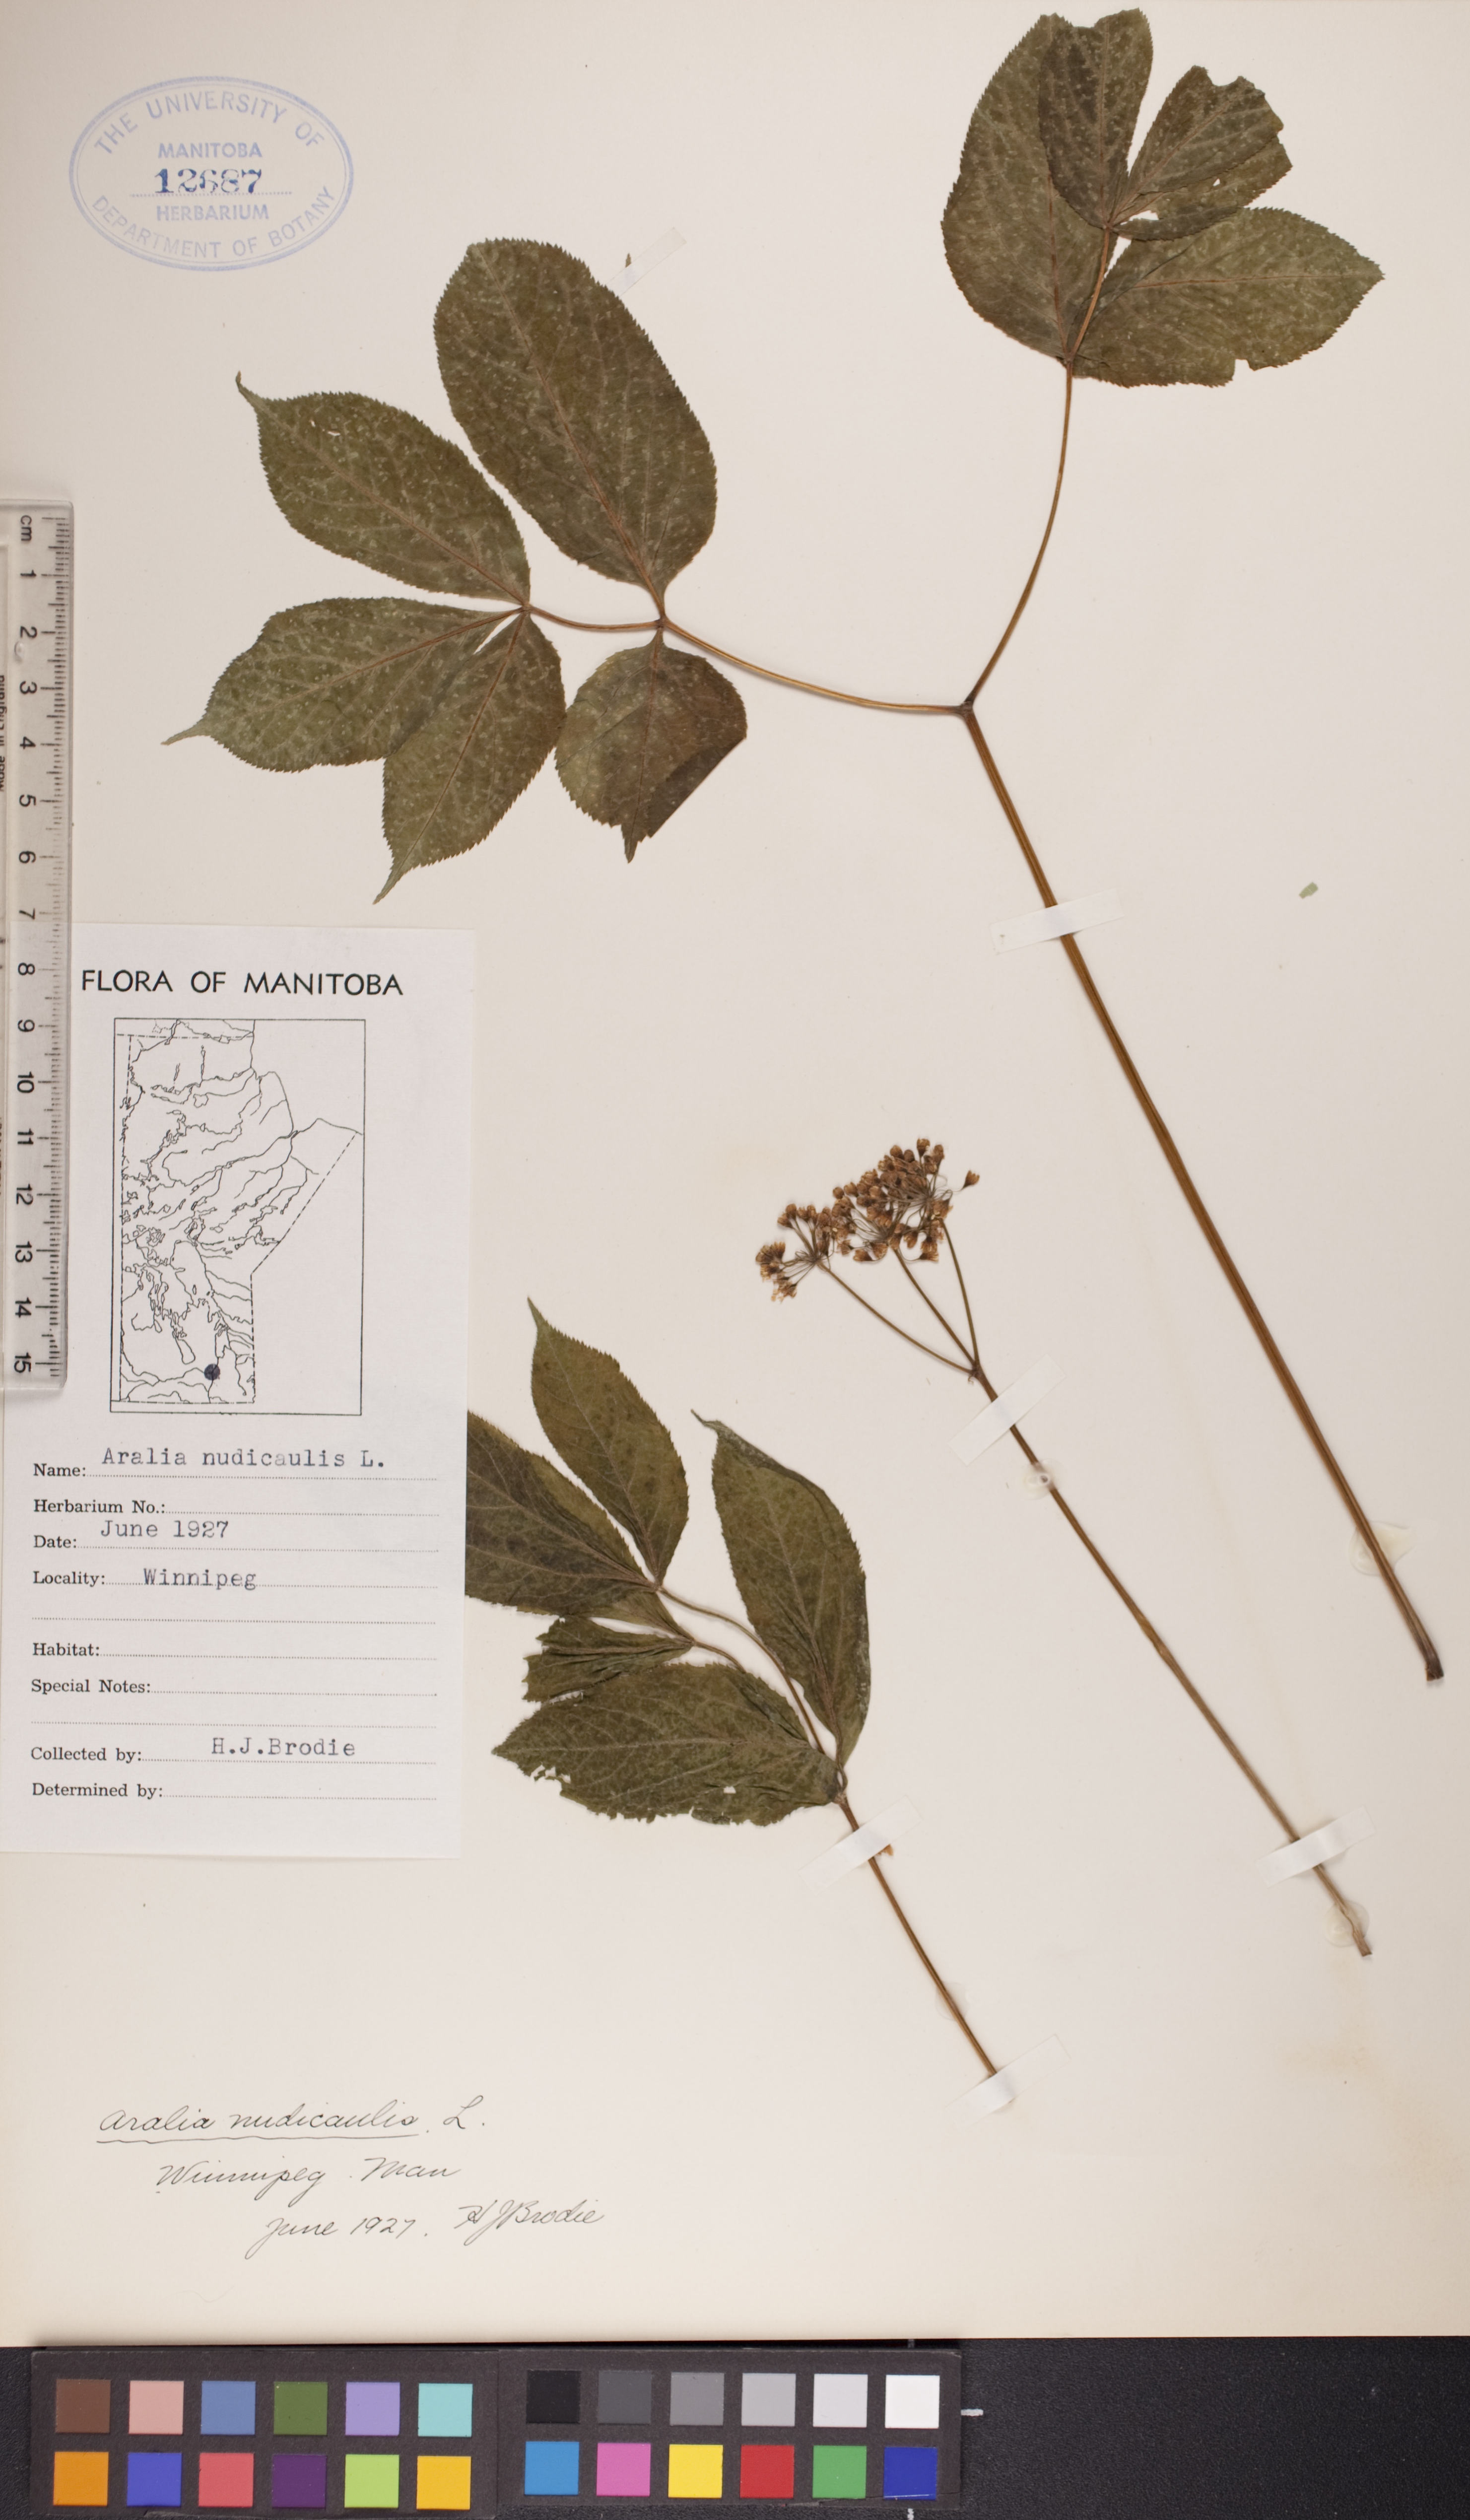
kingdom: Plantae
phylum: Tracheophyta
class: Magnoliopsida
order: Apiales
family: Araliaceae
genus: Aralia
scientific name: Aralia nudicaulis
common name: Wild sarsaparilla
